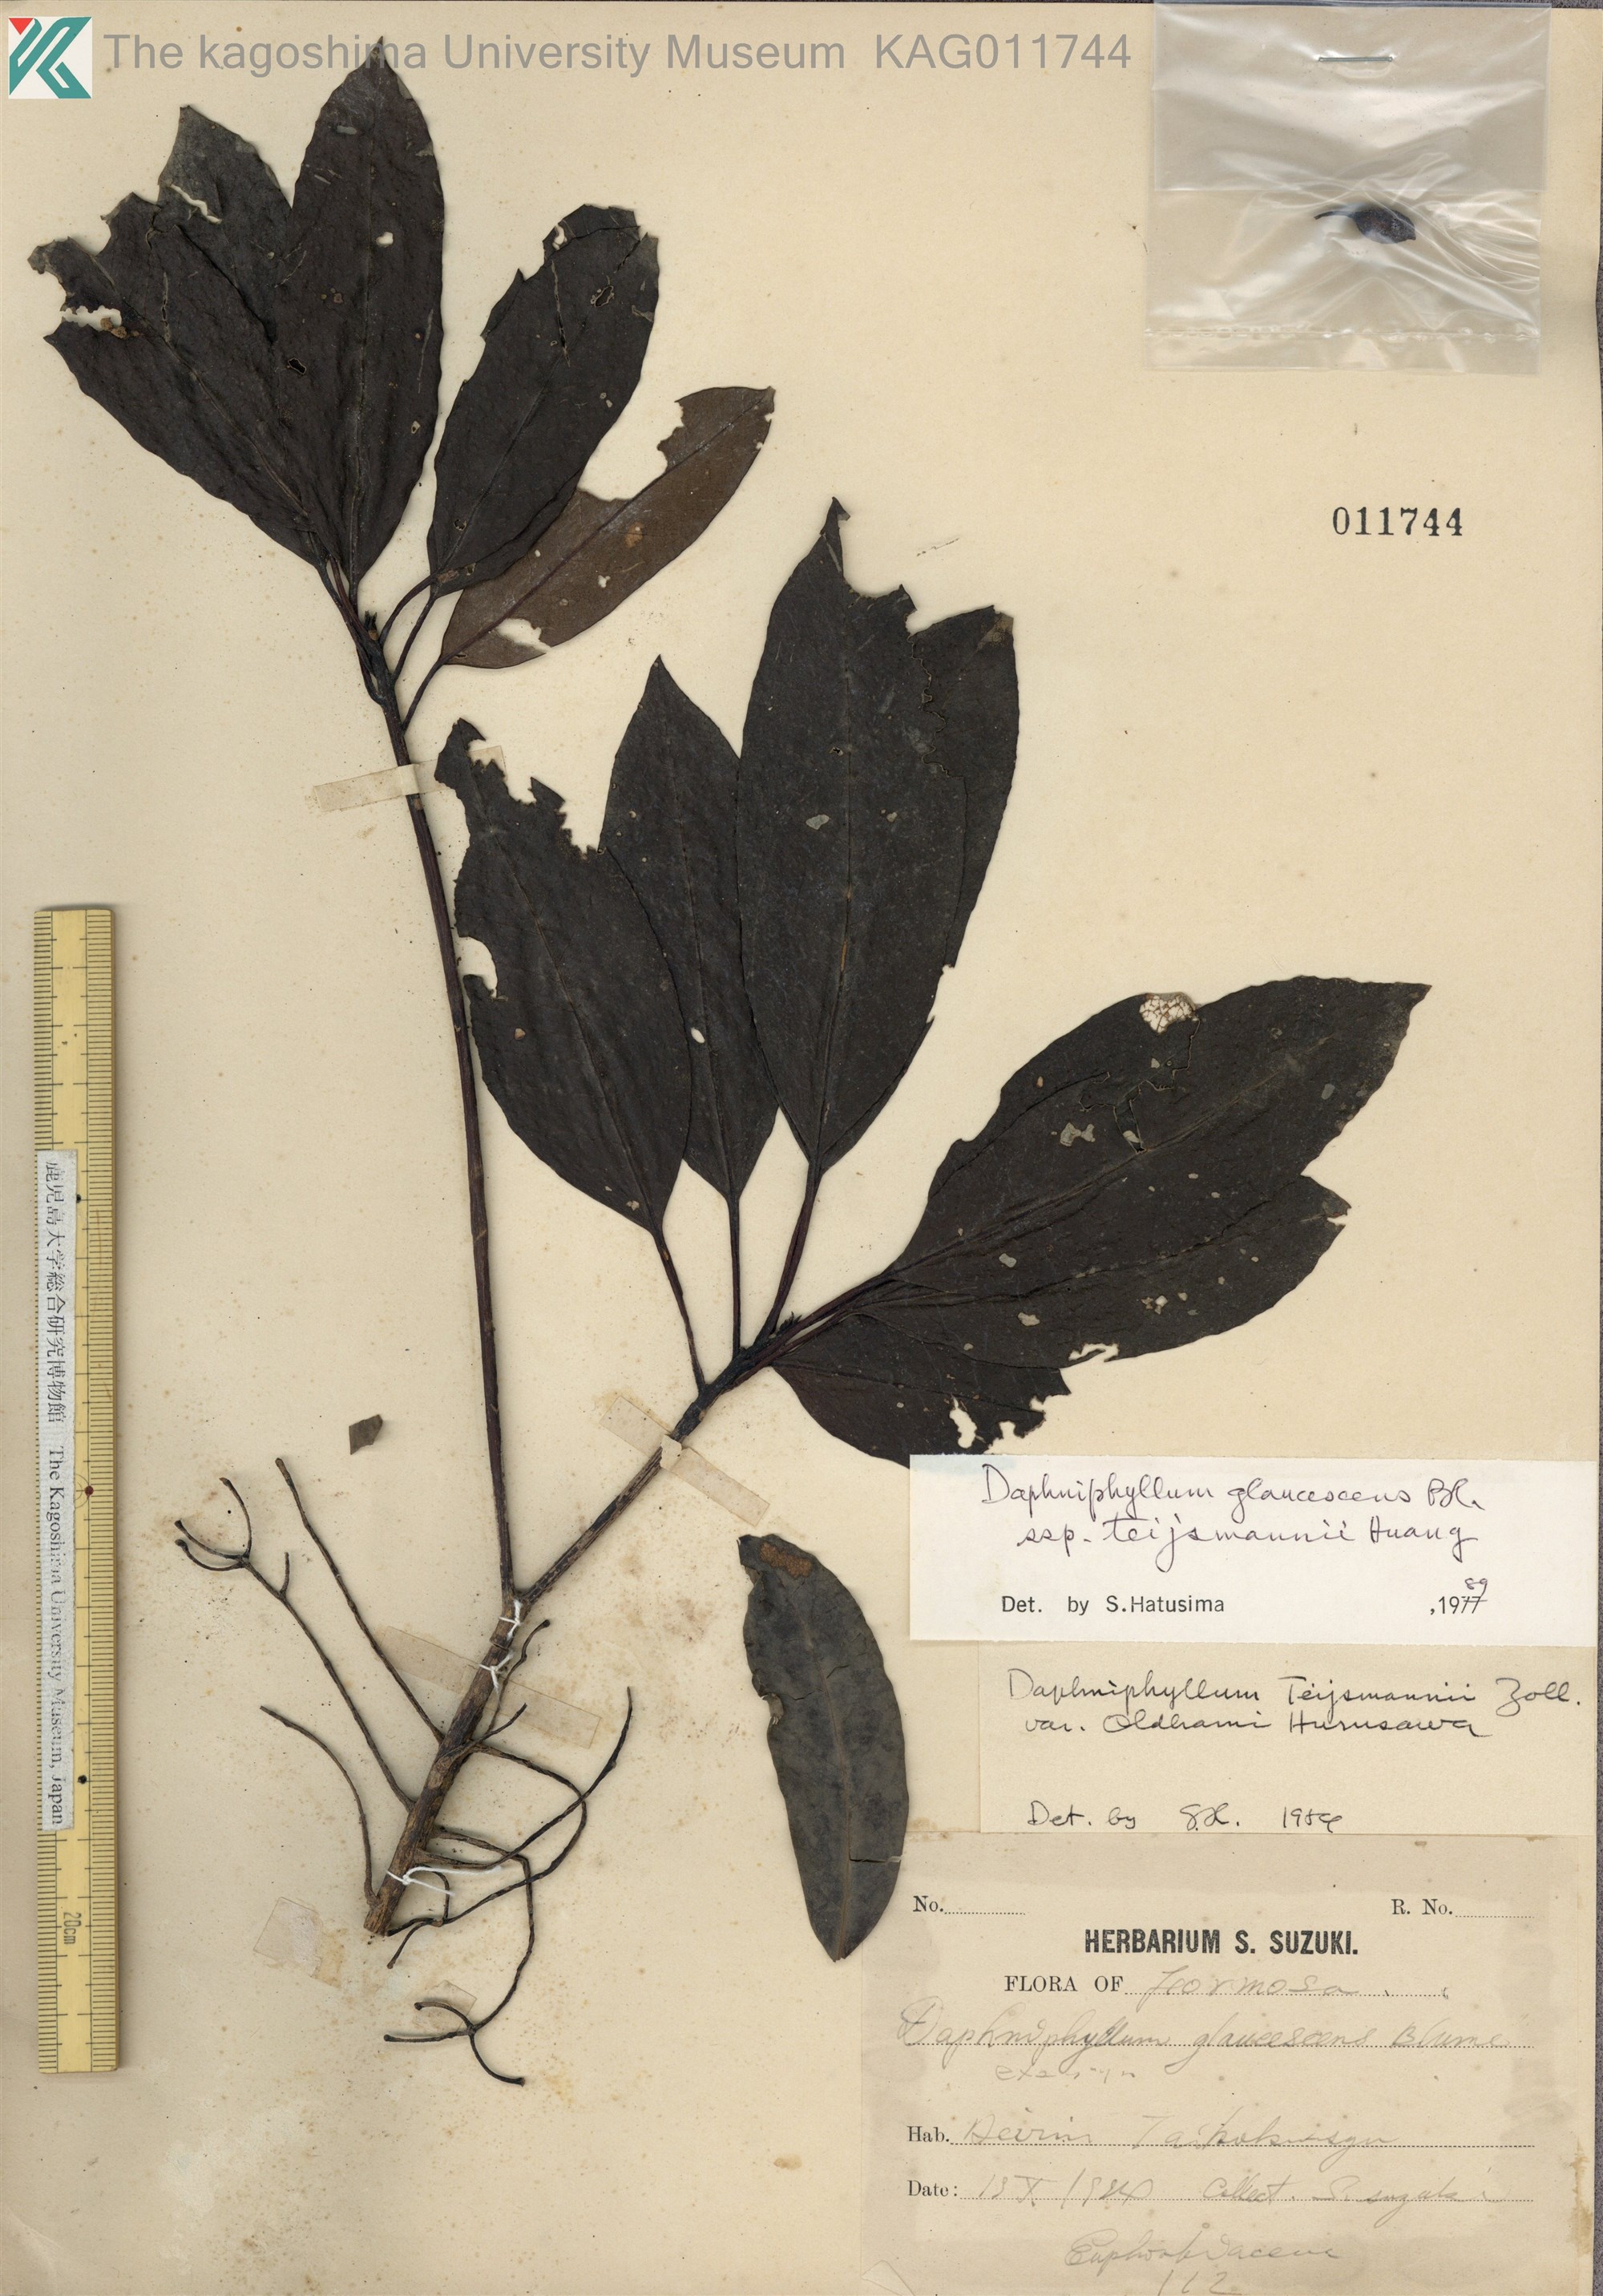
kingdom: Plantae
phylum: Tracheophyta
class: Magnoliopsida
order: Saxifragales
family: Daphniphyllaceae
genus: Daphniphyllum
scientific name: Daphniphyllum teijsmannii
